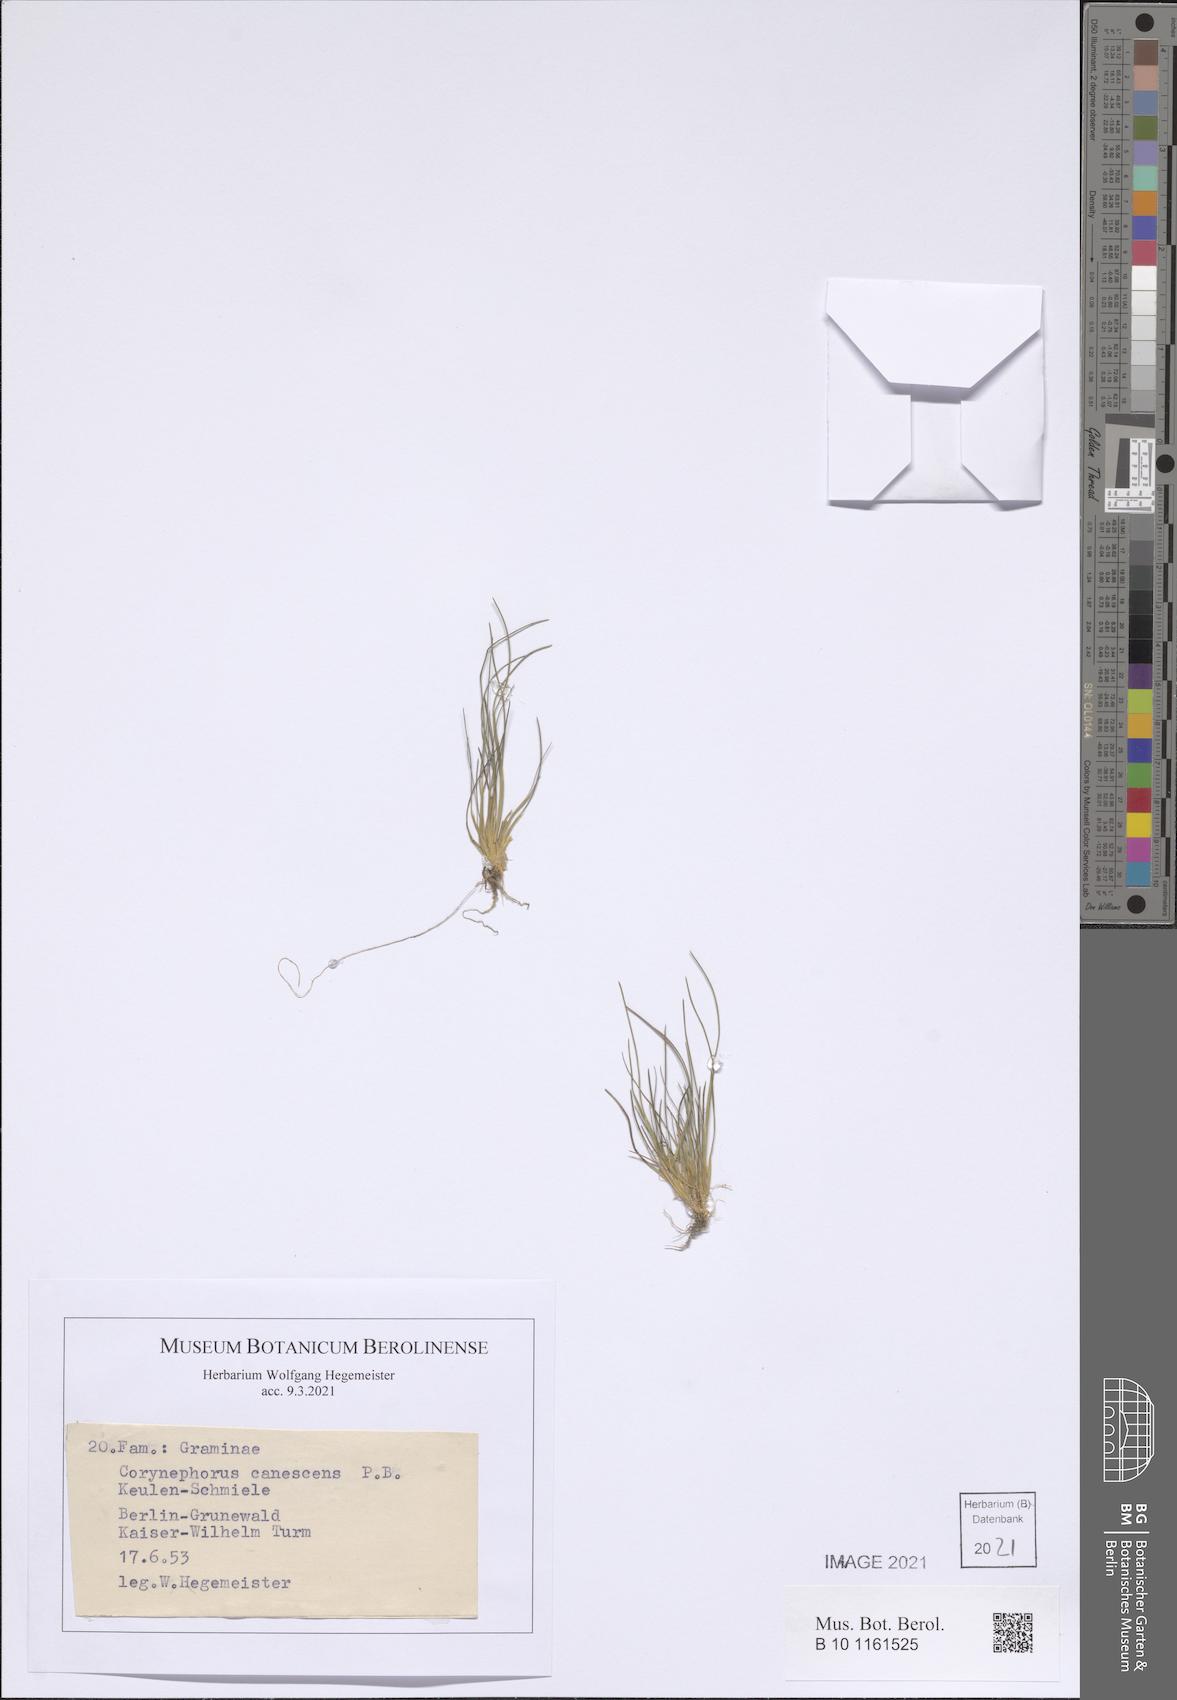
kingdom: Plantae
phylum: Tracheophyta
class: Liliopsida
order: Poales
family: Poaceae
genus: Corynephorus
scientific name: Corynephorus canescens
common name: Grey hair-grass
